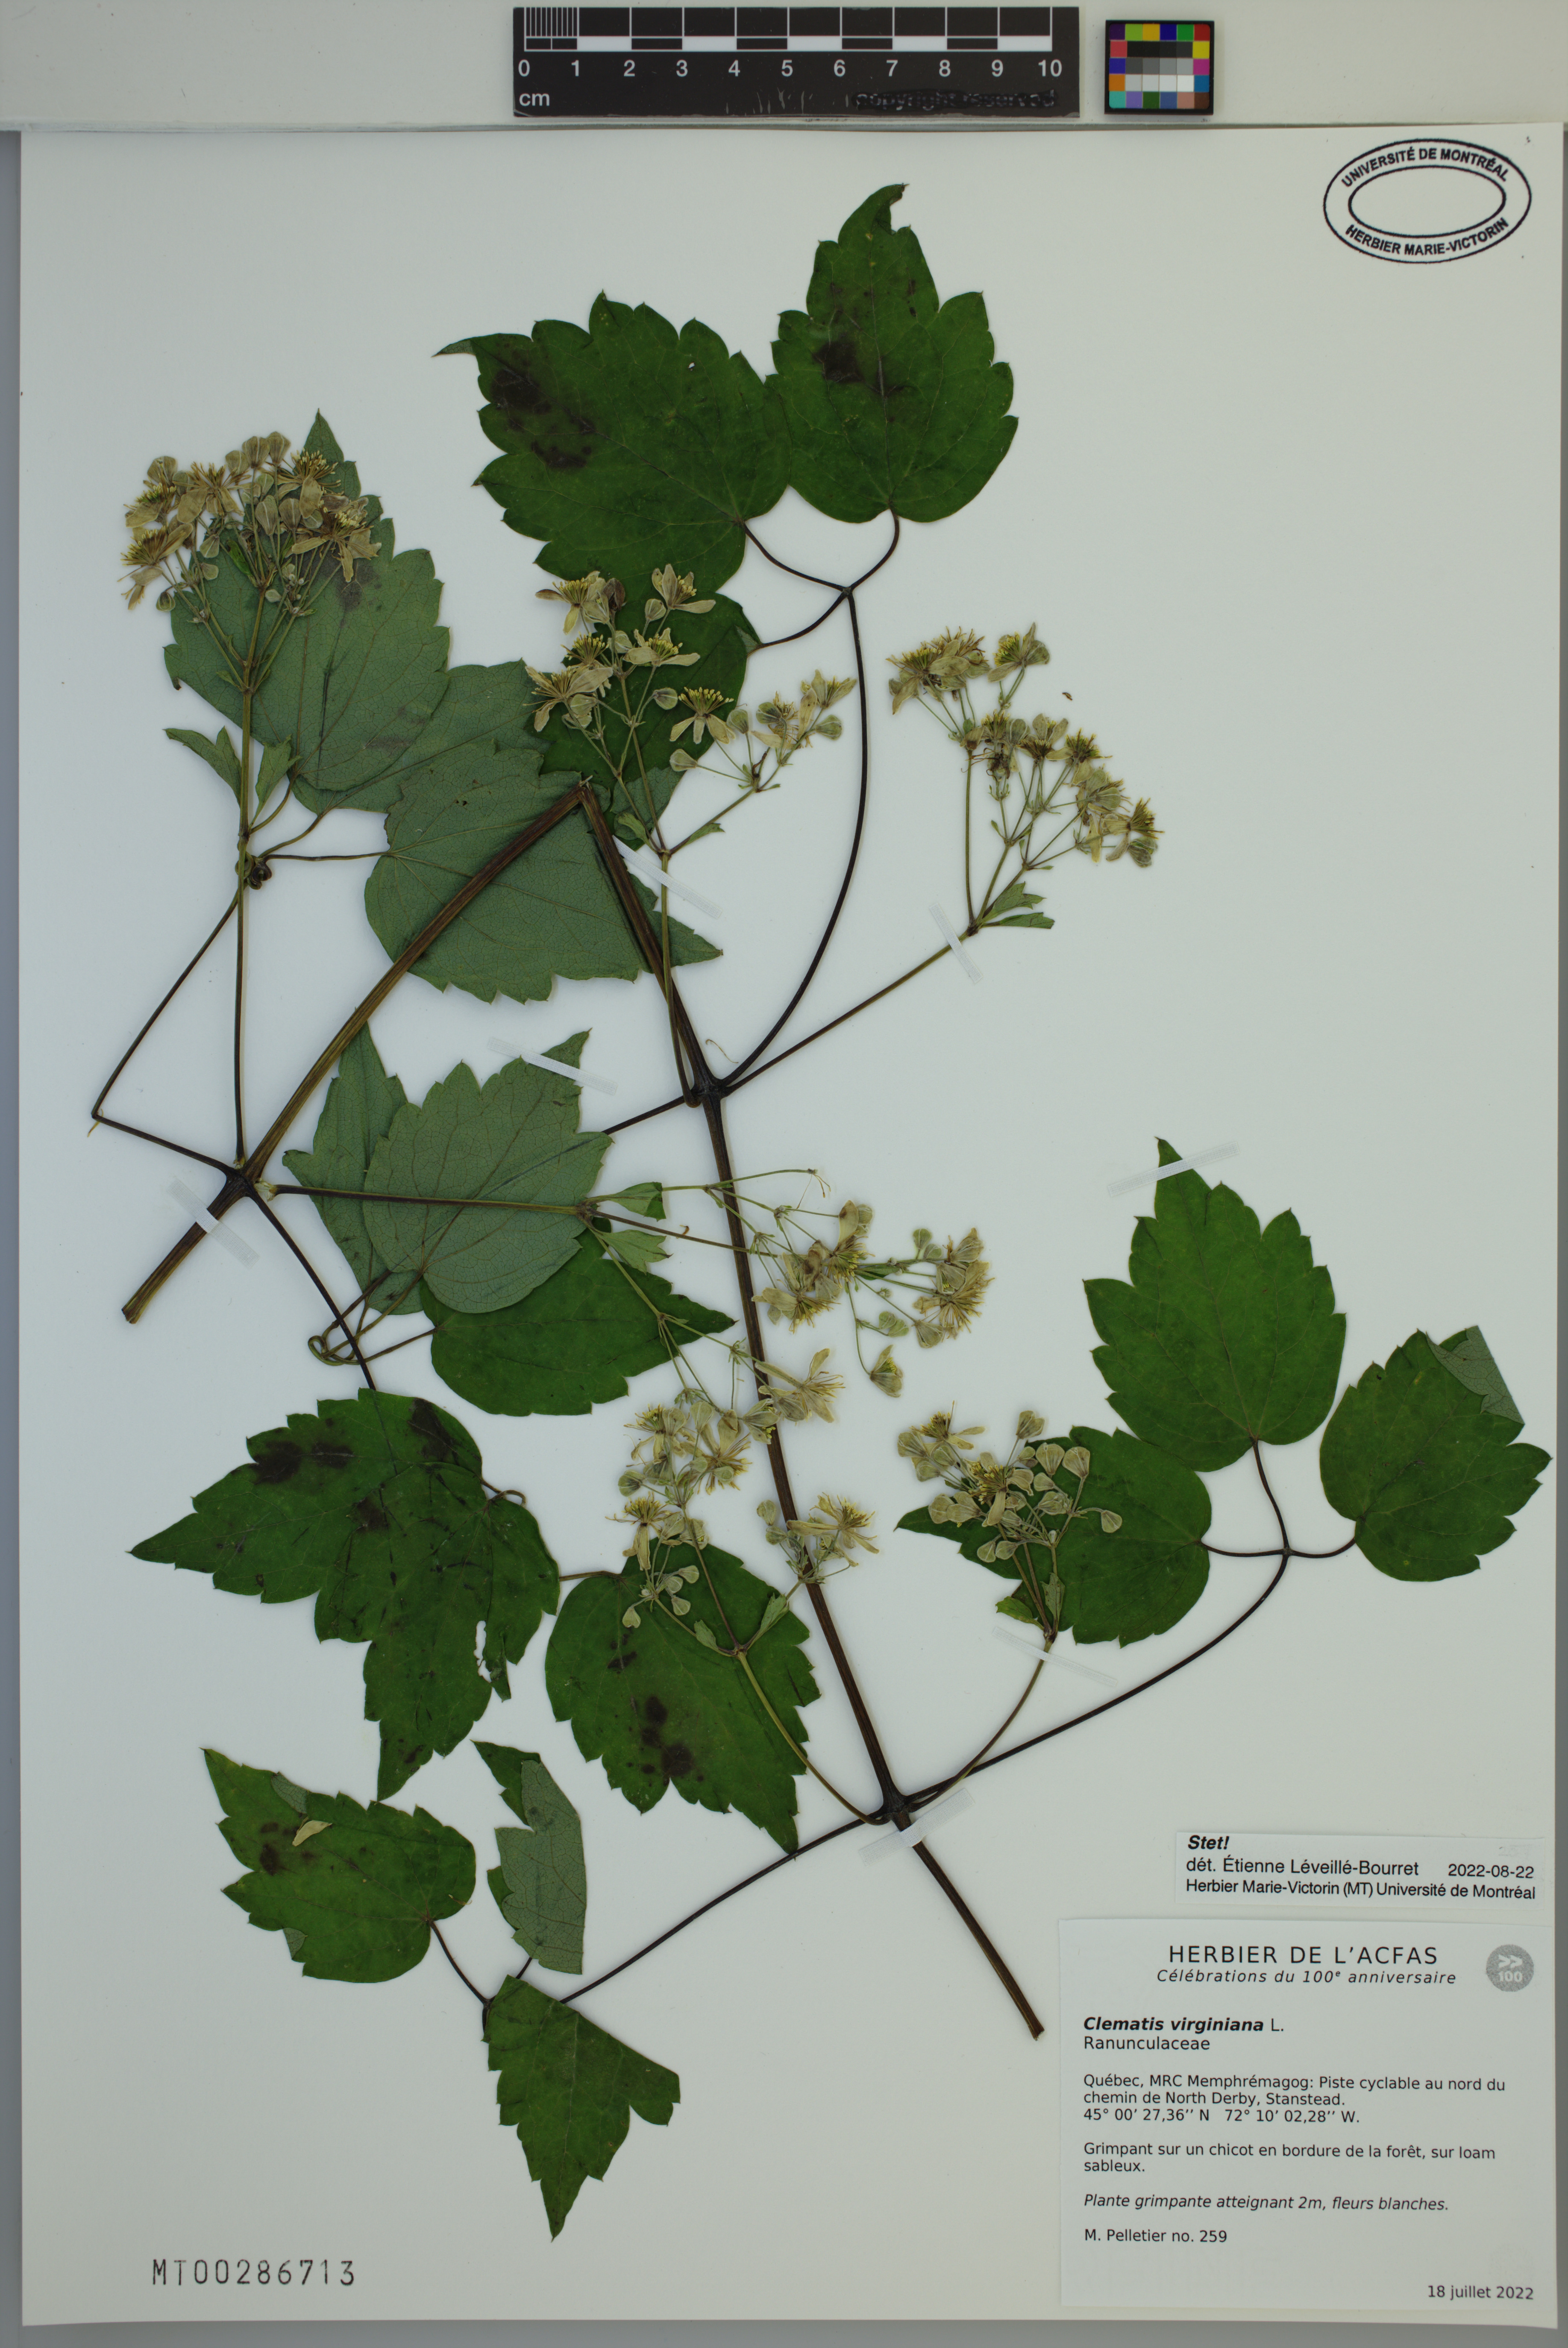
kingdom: Plantae
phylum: Tracheophyta
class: Magnoliopsida
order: Ranunculales
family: Ranunculaceae
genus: Clematis
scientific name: Clematis virginiana
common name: Virgin's-bower
